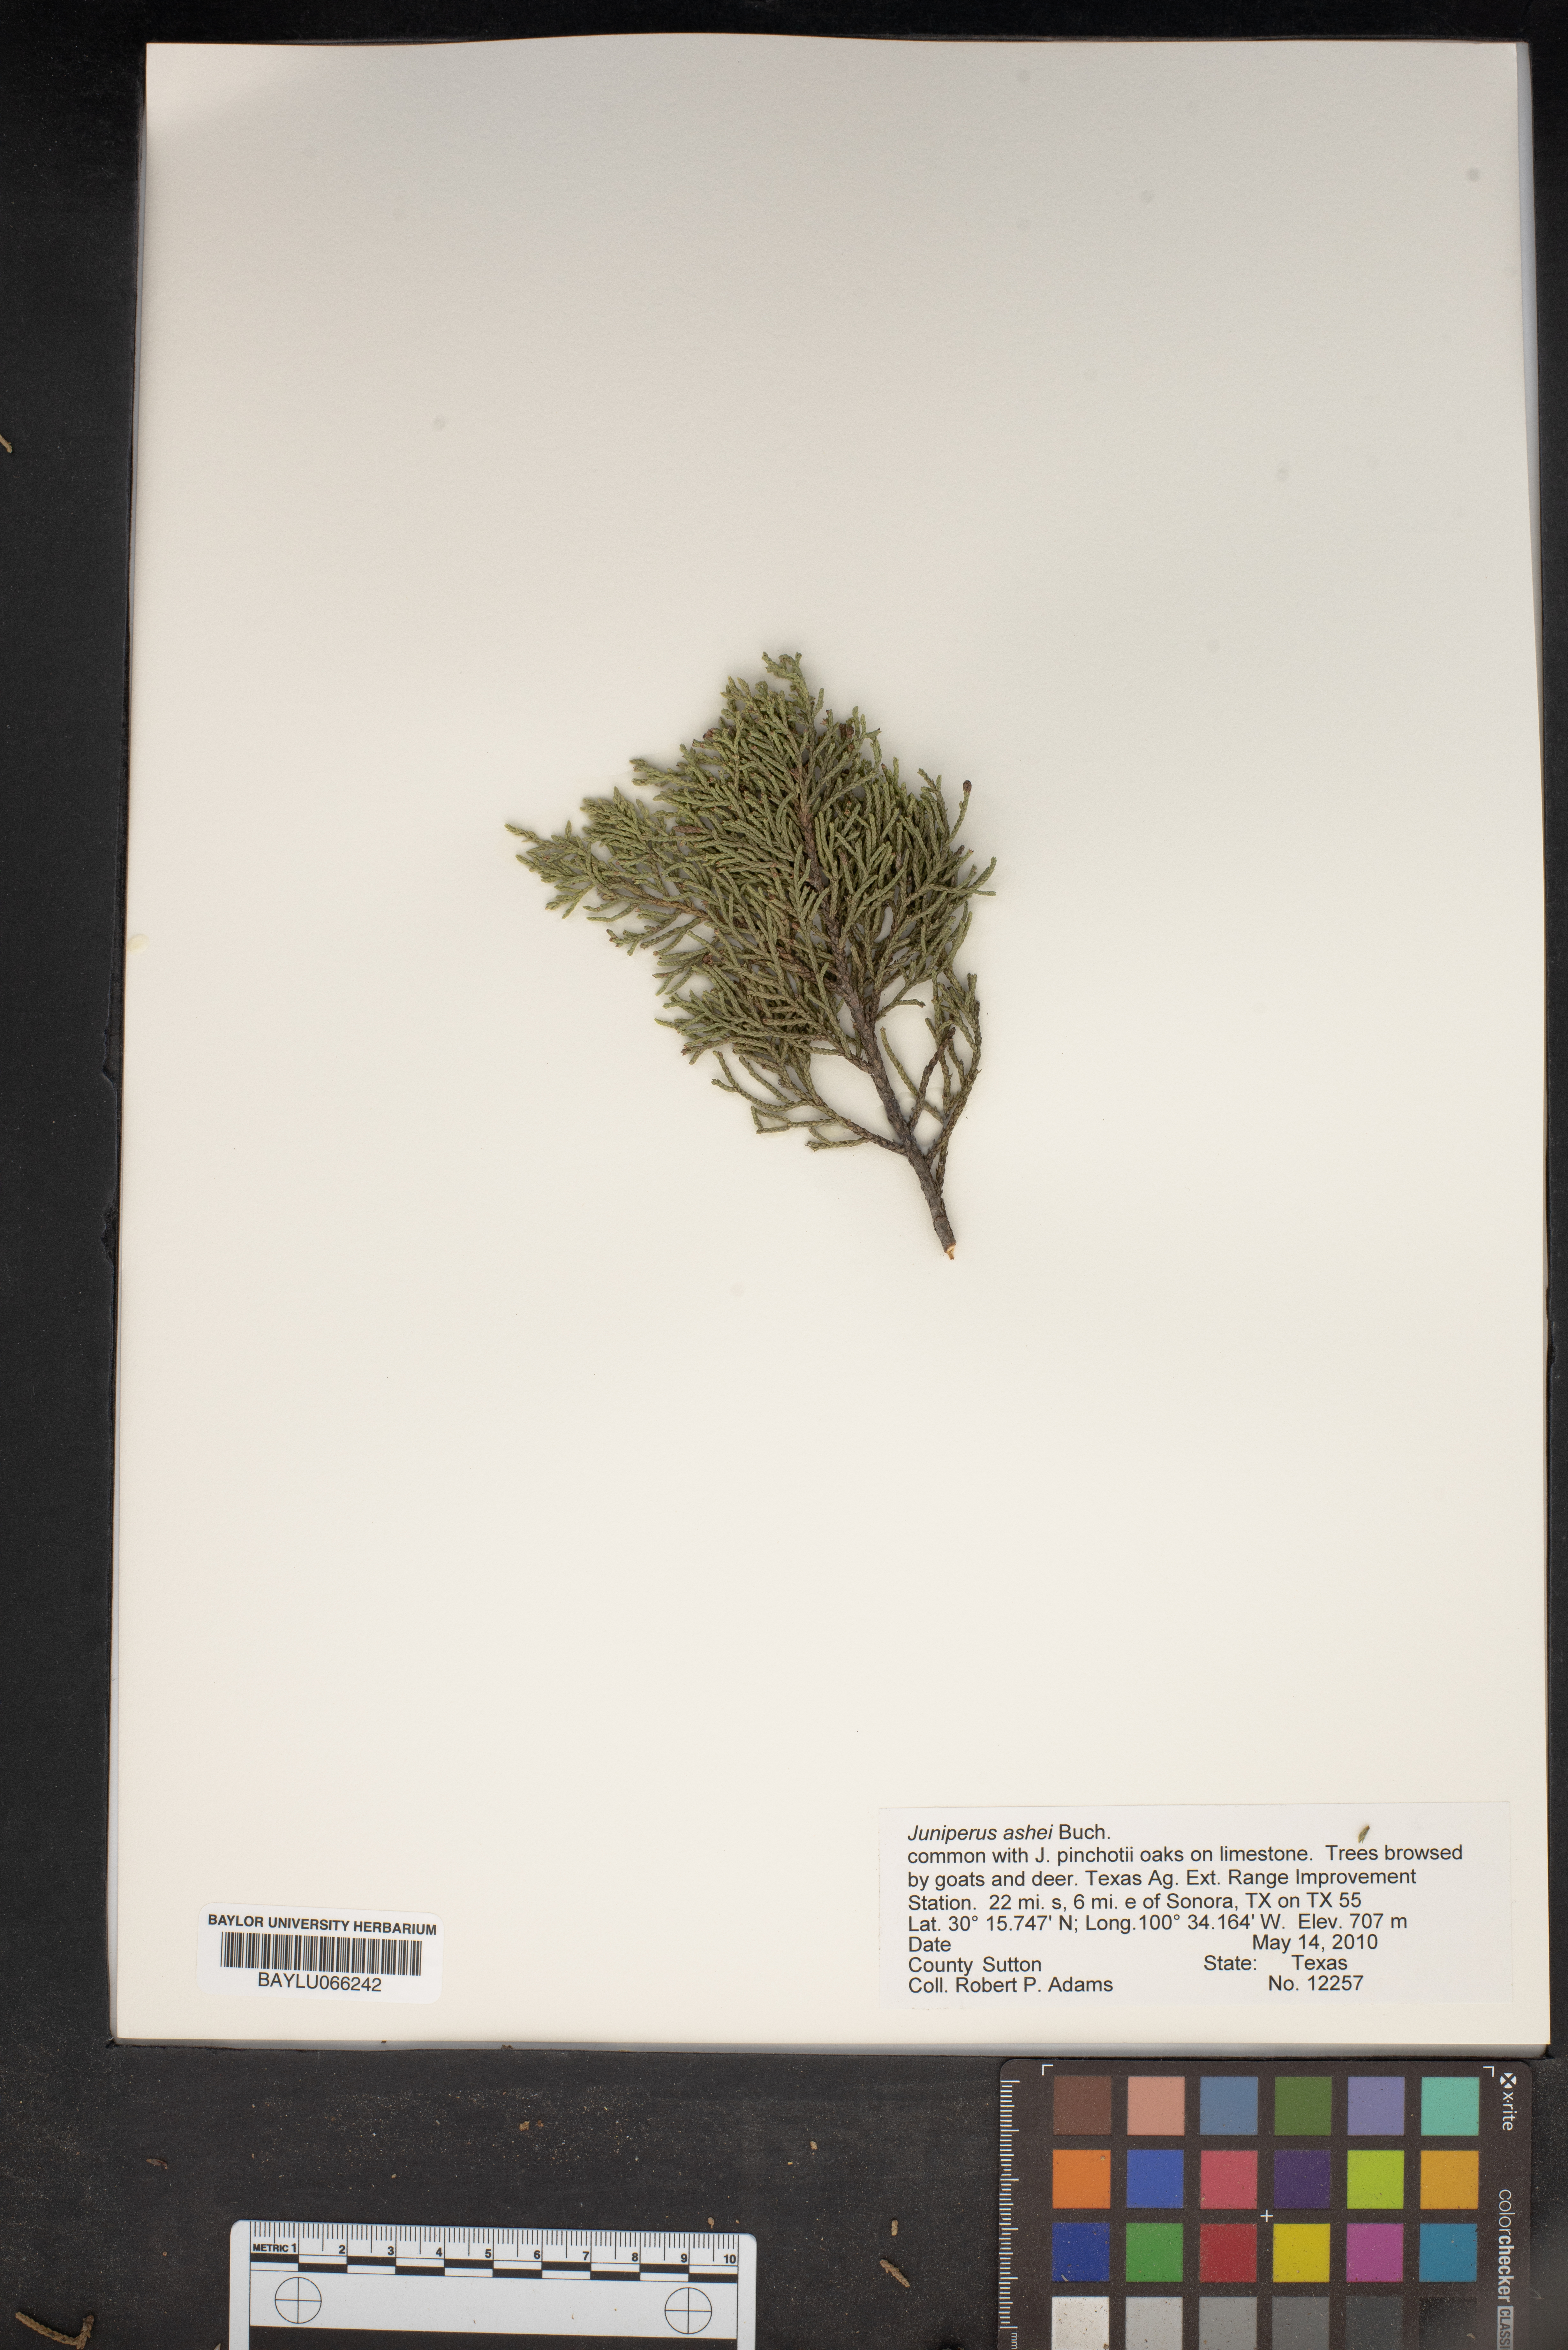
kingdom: Plantae
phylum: Tracheophyta
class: Pinopsida
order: Pinales
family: Cupressaceae
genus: Juniperus
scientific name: Juniperus ashei
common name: Mexican juniper
